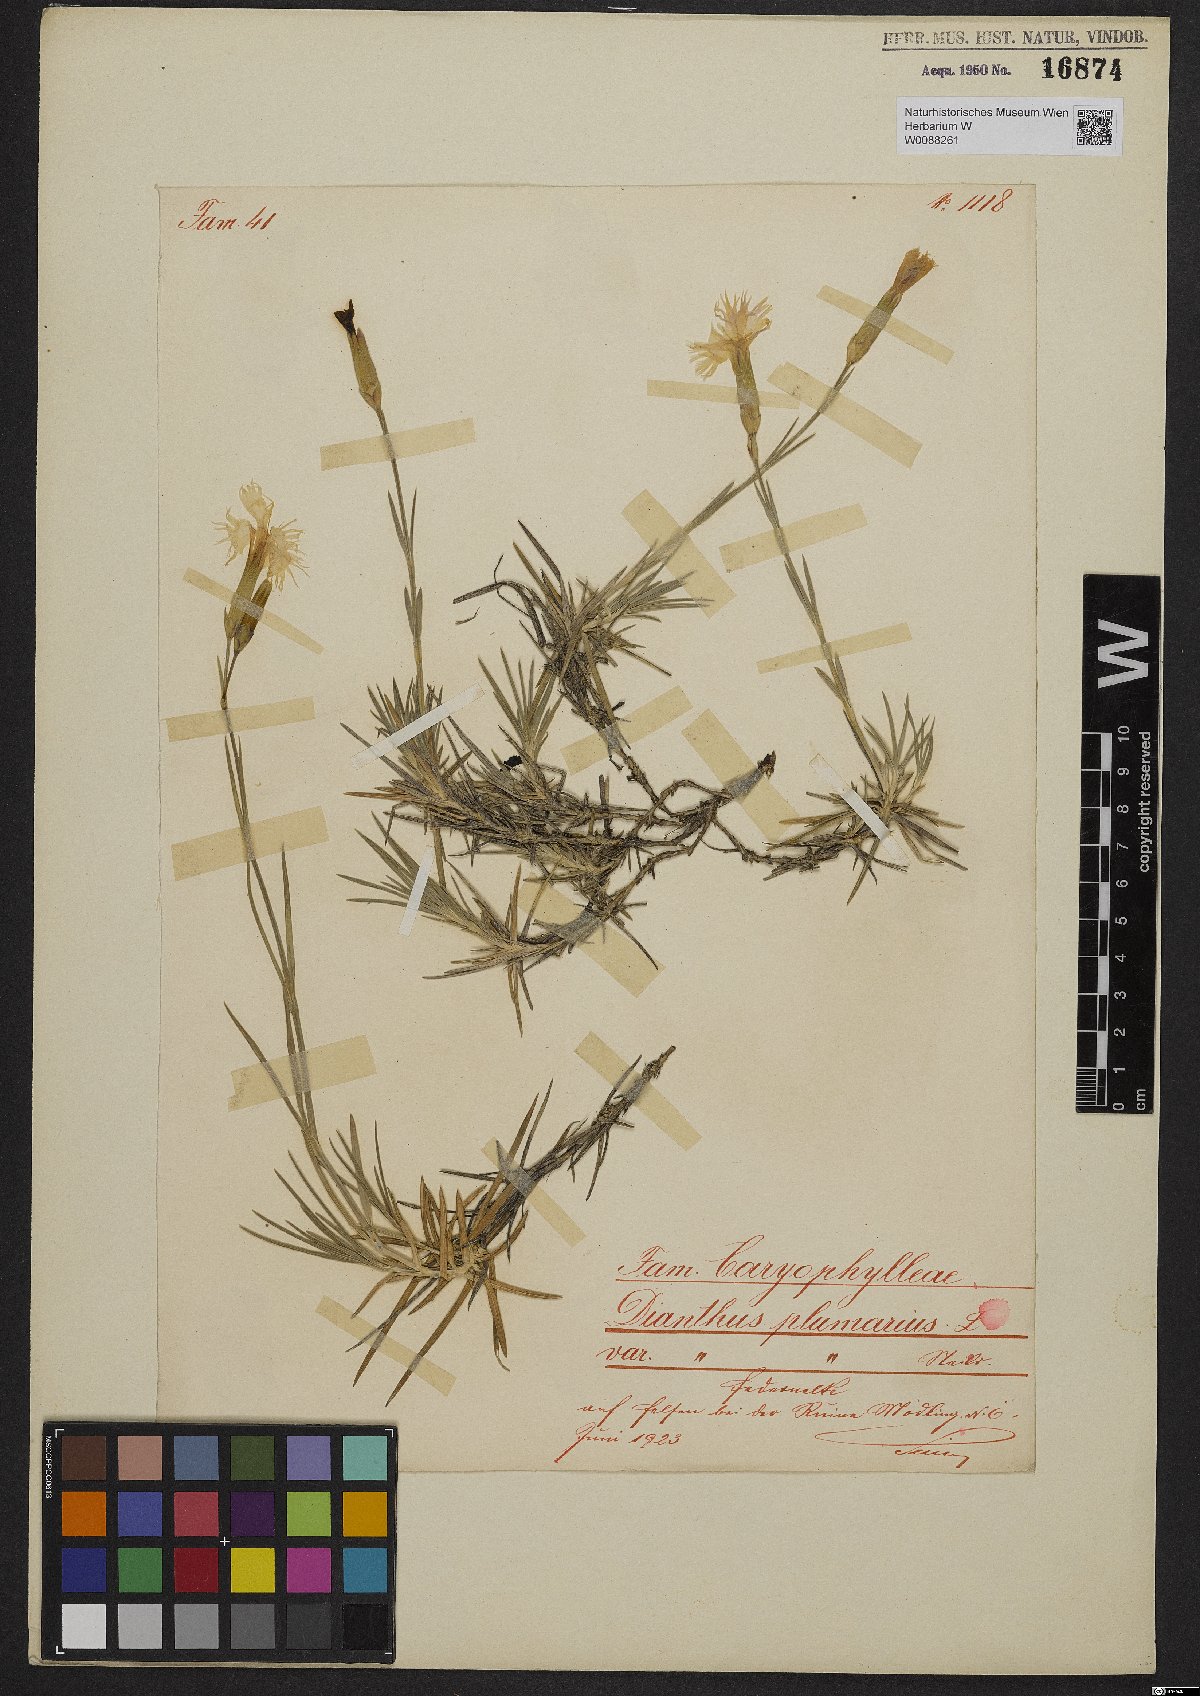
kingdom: Plantae
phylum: Tracheophyta
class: Magnoliopsida
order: Caryophyllales
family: Caryophyllaceae
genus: Dianthus
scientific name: Dianthus plumarius
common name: Pink
